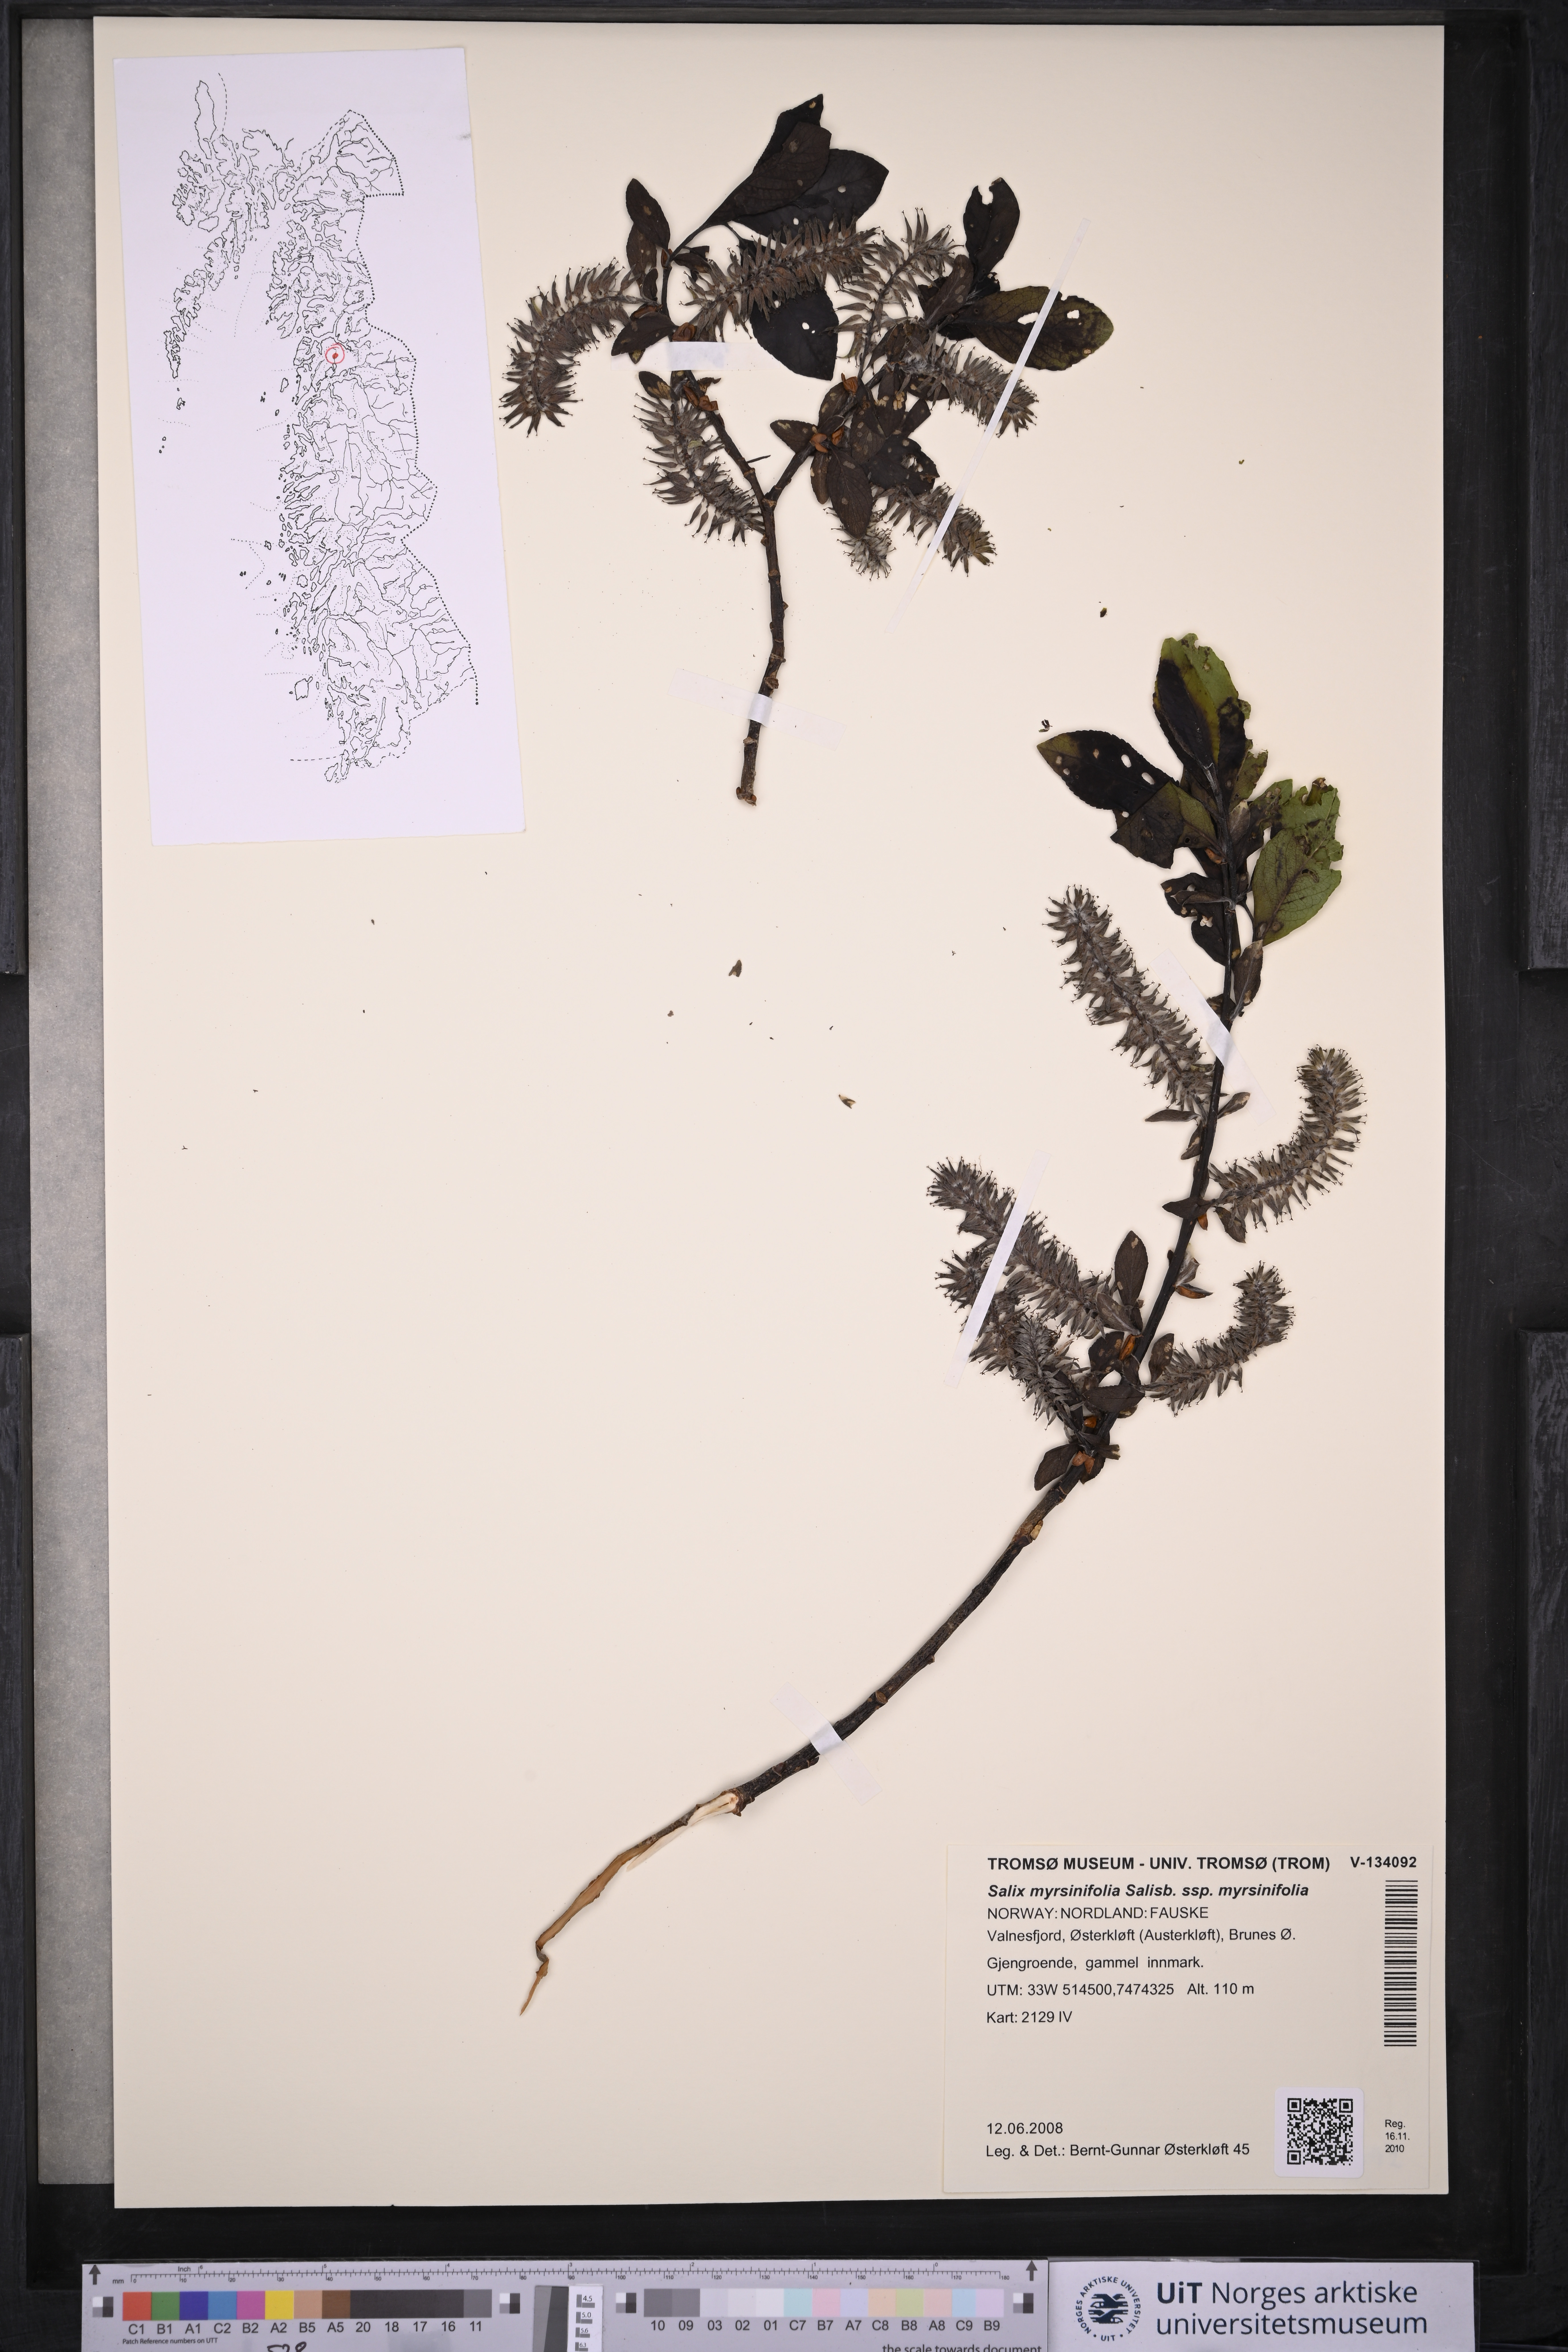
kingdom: Plantae
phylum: Tracheophyta
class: Magnoliopsida
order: Malpighiales
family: Salicaceae
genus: Salix
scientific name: Salix myrsinifolia
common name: Dark-leaved willow
